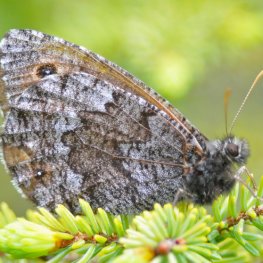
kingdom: Animalia
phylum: Arthropoda
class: Insecta
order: Lepidoptera
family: Nymphalidae
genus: Oeneis
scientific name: Oeneis jutta
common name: Jutta Arctic
